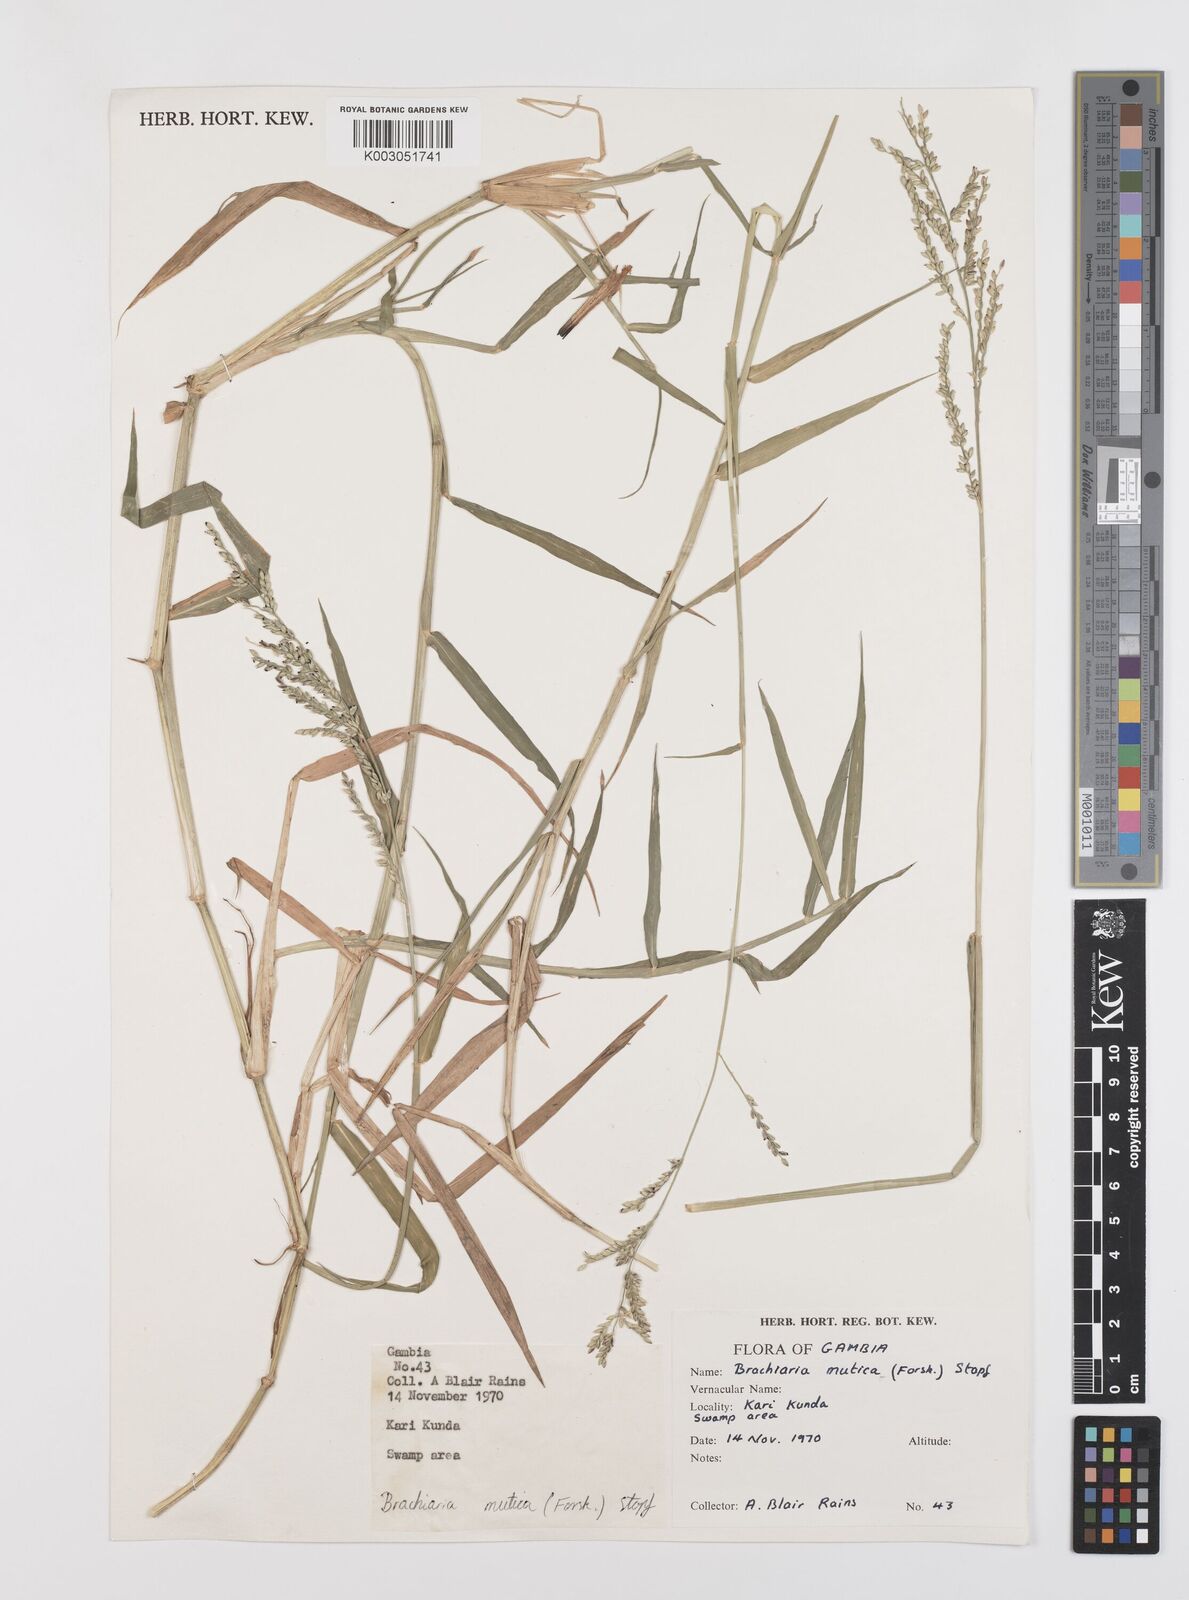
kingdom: Plantae
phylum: Tracheophyta
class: Liliopsida
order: Poales
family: Poaceae
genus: Urochloa
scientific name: Urochloa mutica
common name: Para grass
